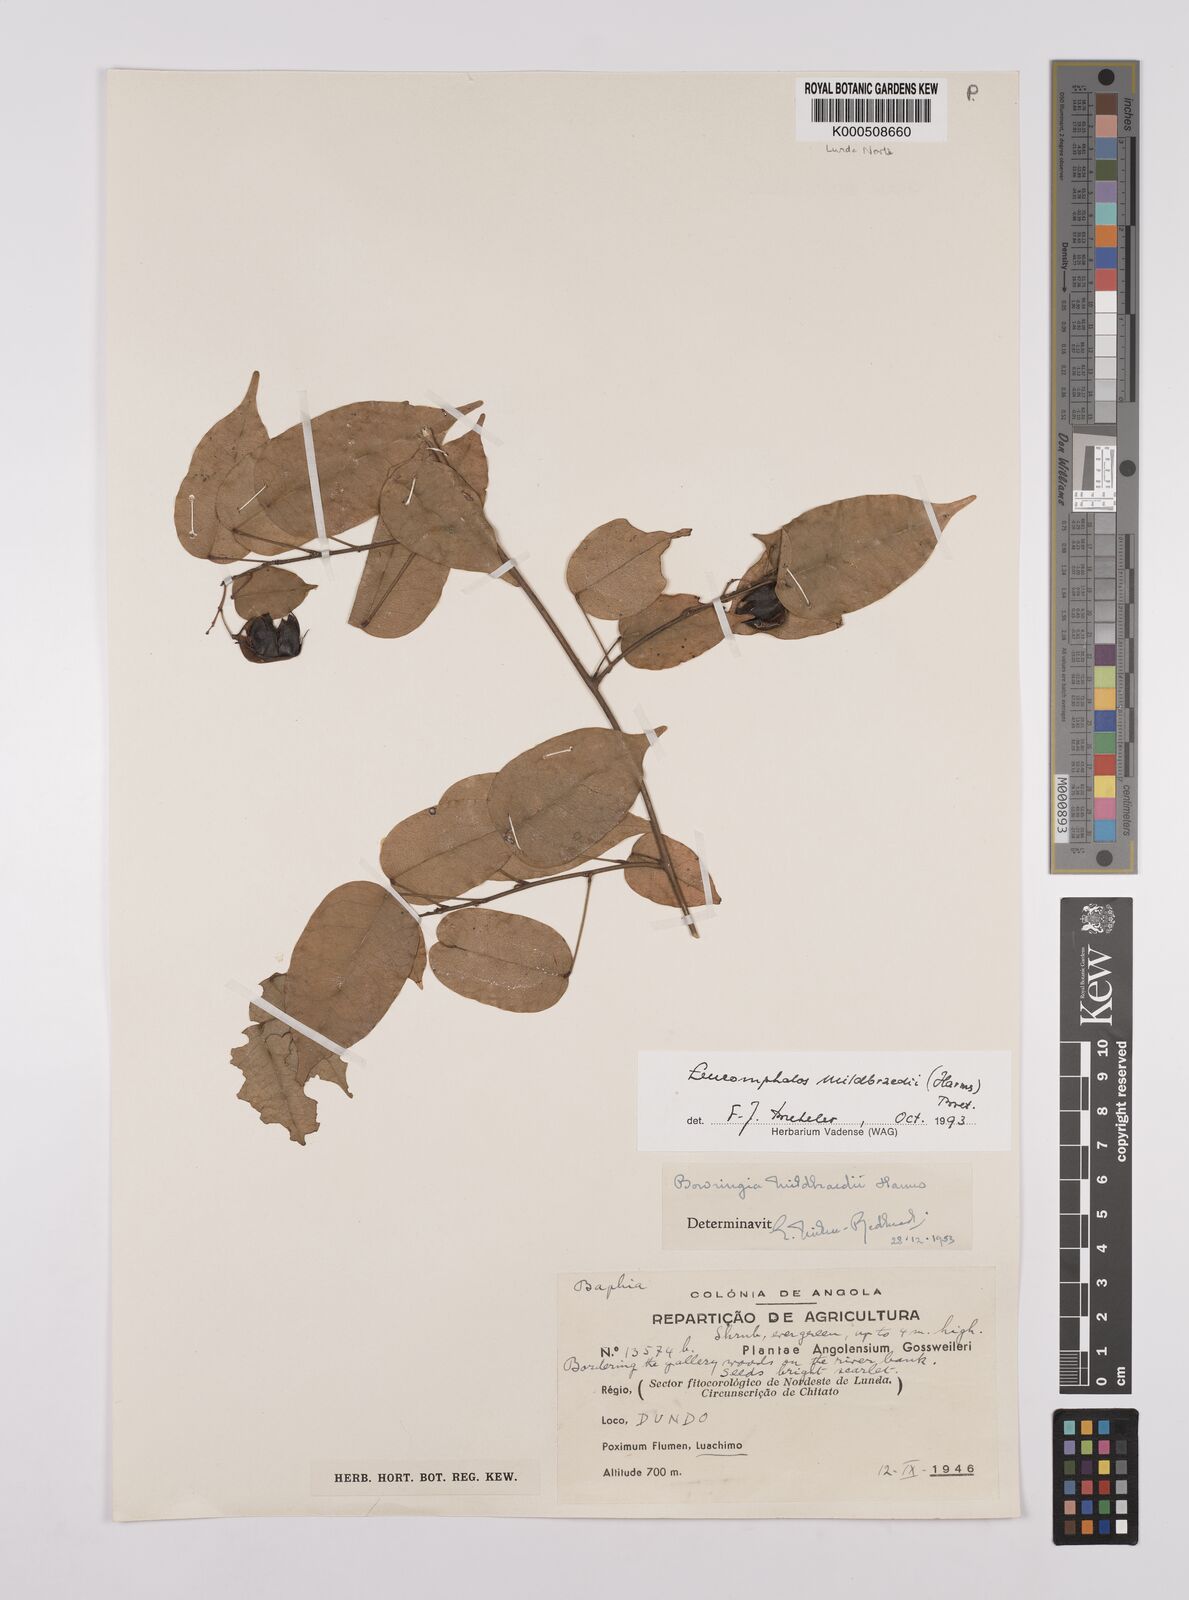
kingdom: Plantae
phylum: Tracheophyta
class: Magnoliopsida
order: Fabales
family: Fabaceae
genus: Bowringia
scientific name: Bowringia mildbraedii
